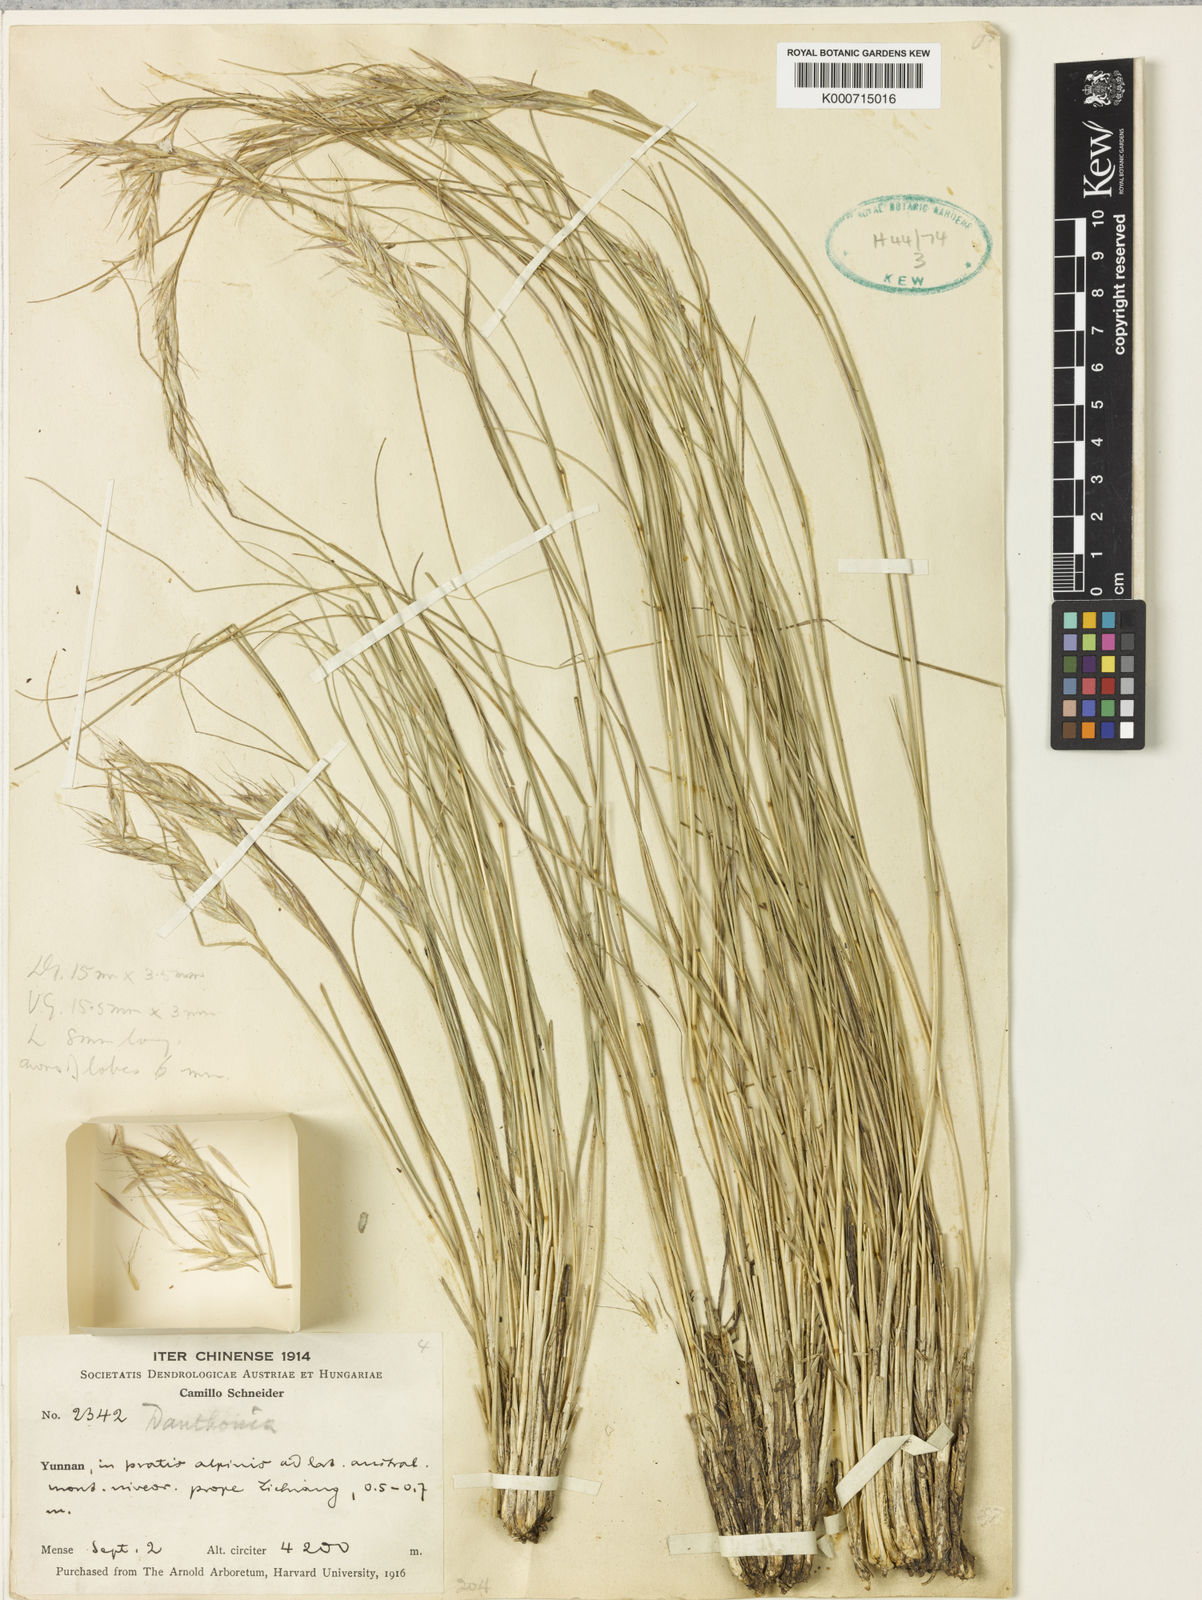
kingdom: Plantae
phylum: Tracheophyta
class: Liliopsida
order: Poales
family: Poaceae
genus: Rytidosperma
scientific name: Rytidosperma
